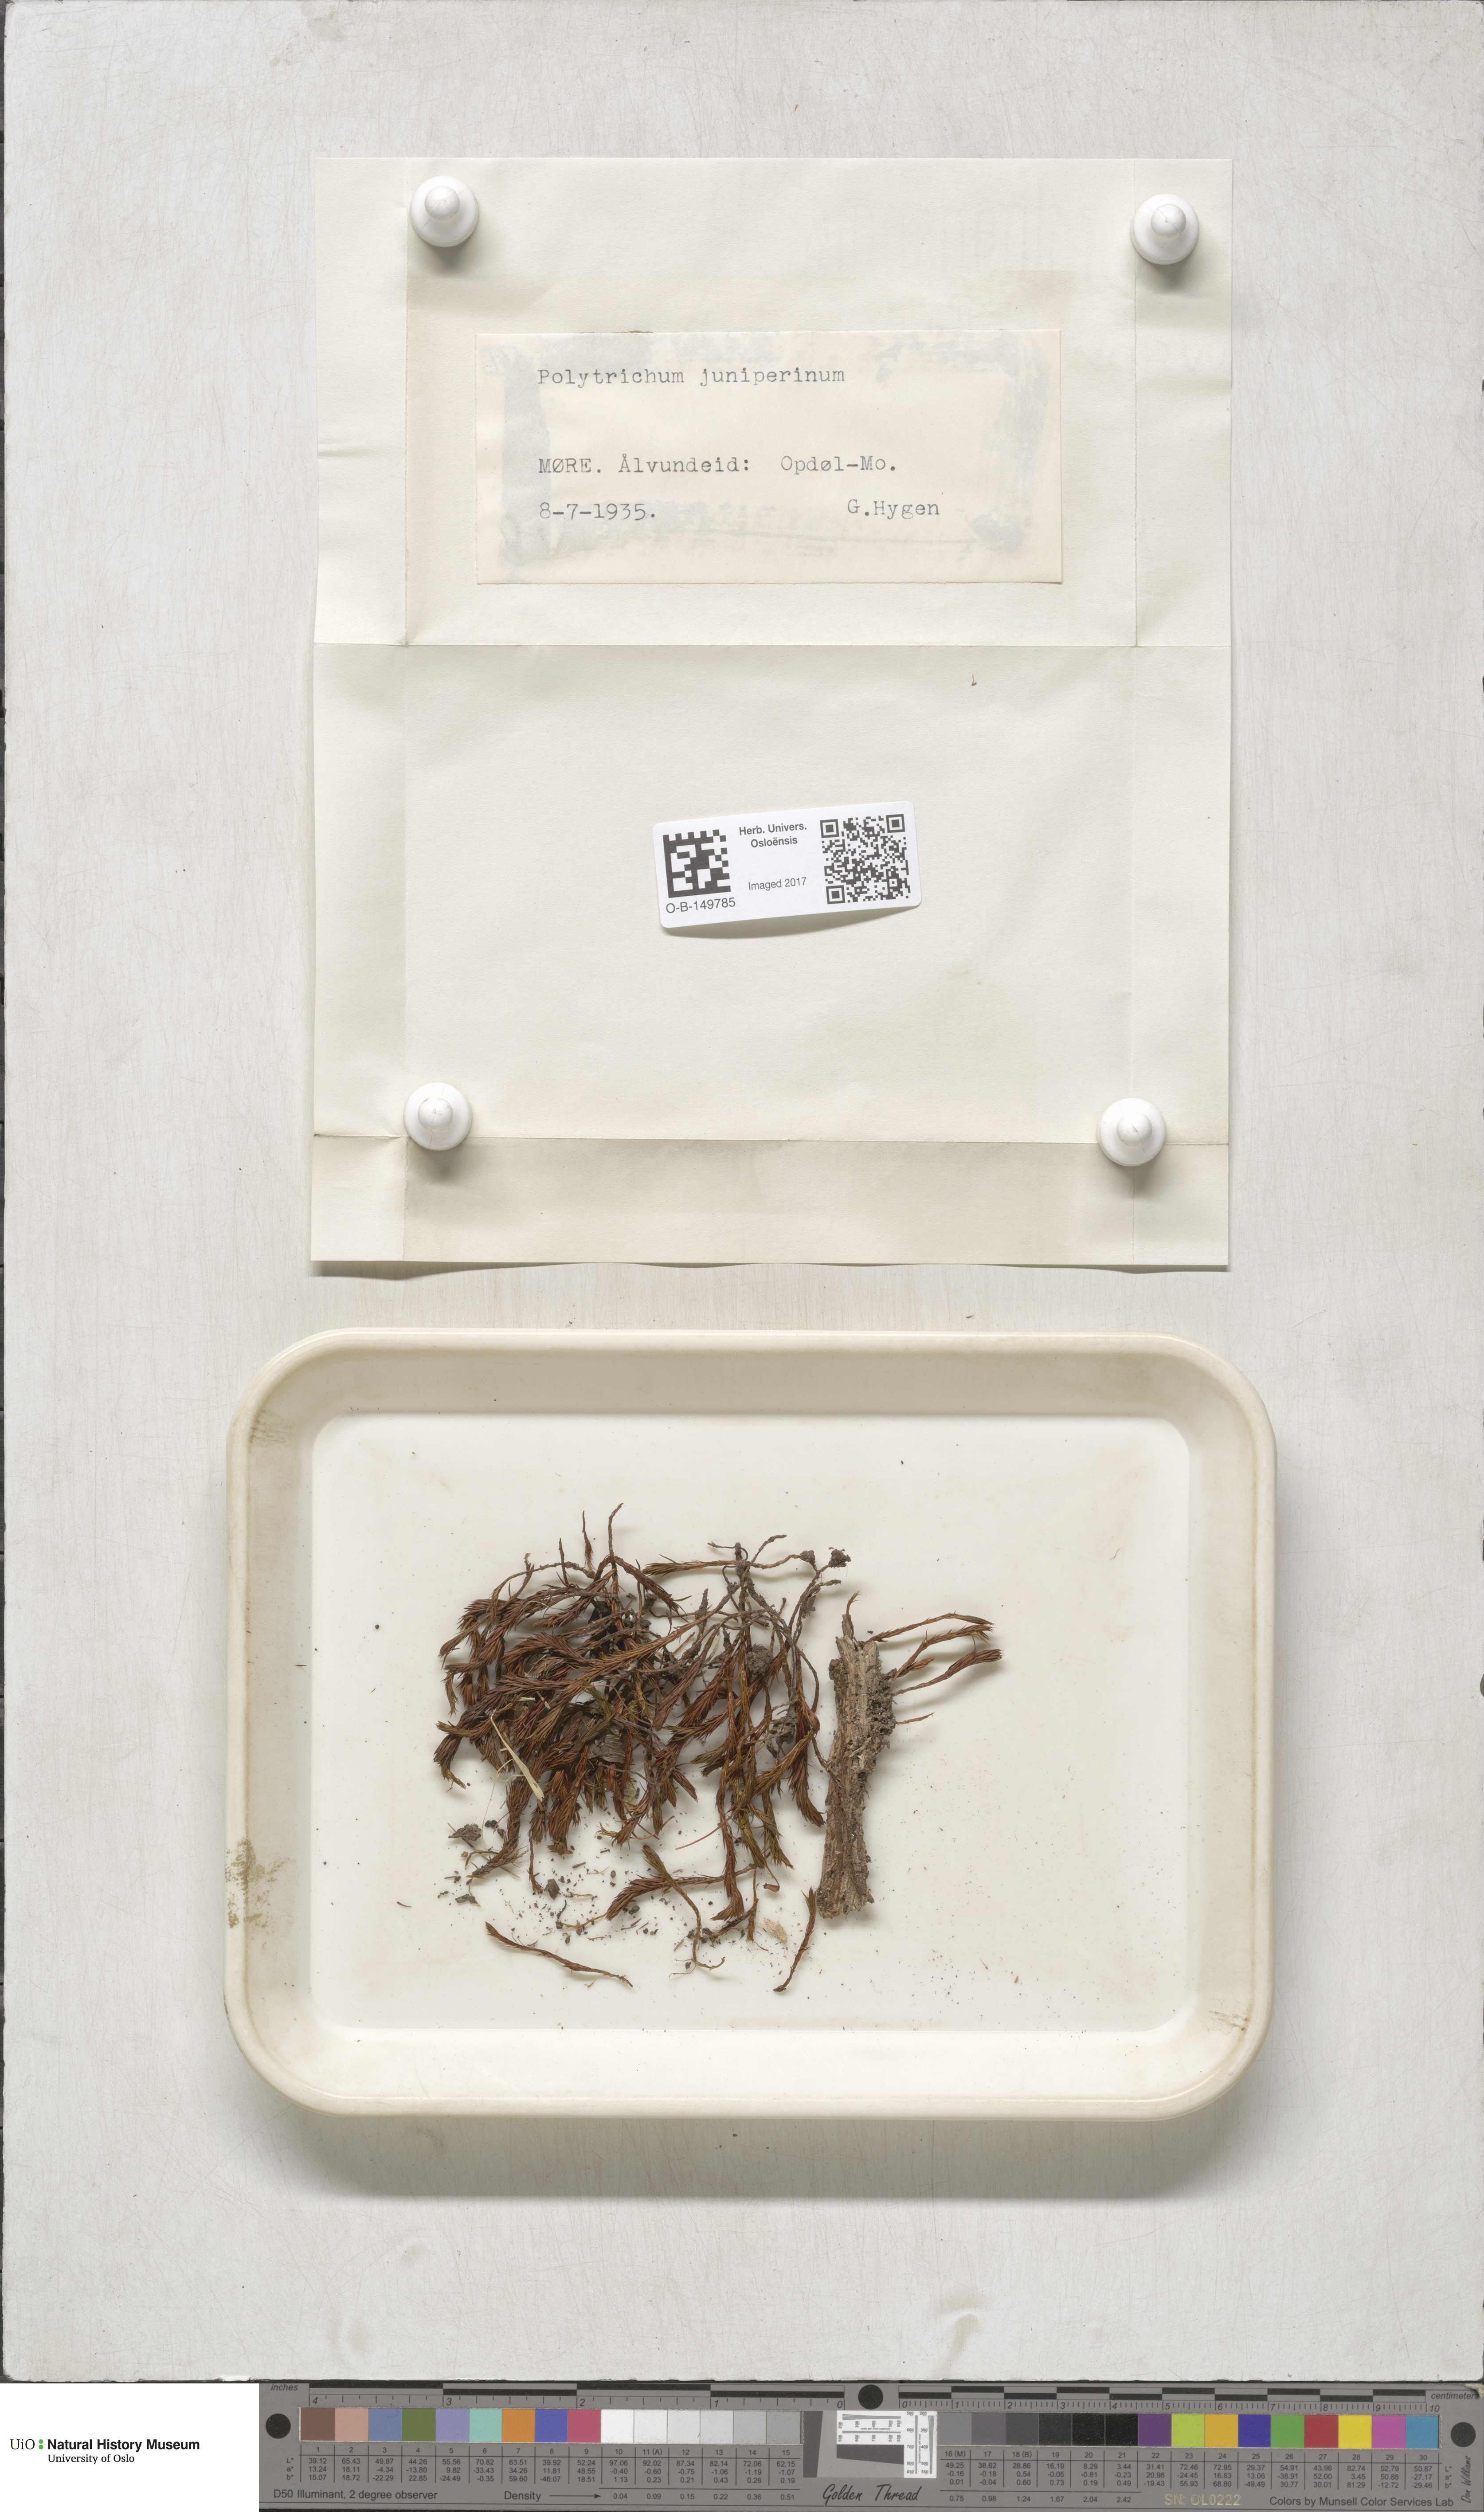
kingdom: Plantae
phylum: Bryophyta
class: Polytrichopsida
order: Polytrichales
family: Polytrichaceae
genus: Polytrichum
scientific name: Polytrichum juniperinum
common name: Juniper haircap moss
